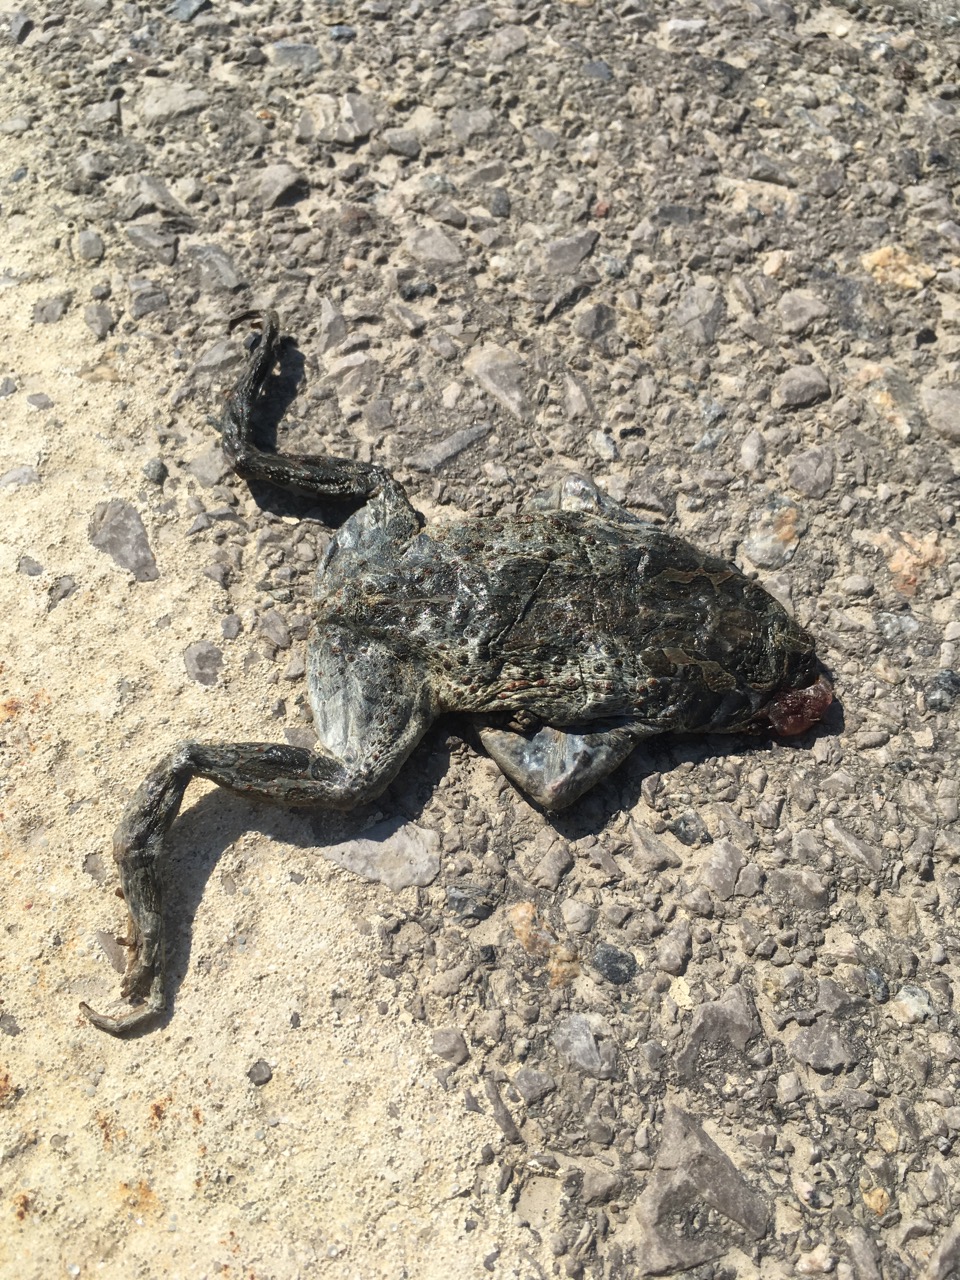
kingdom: Animalia
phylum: Chordata
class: Amphibia
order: Anura
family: Bufonidae
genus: Bufotes
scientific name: Bufotes viridis
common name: European green toad
